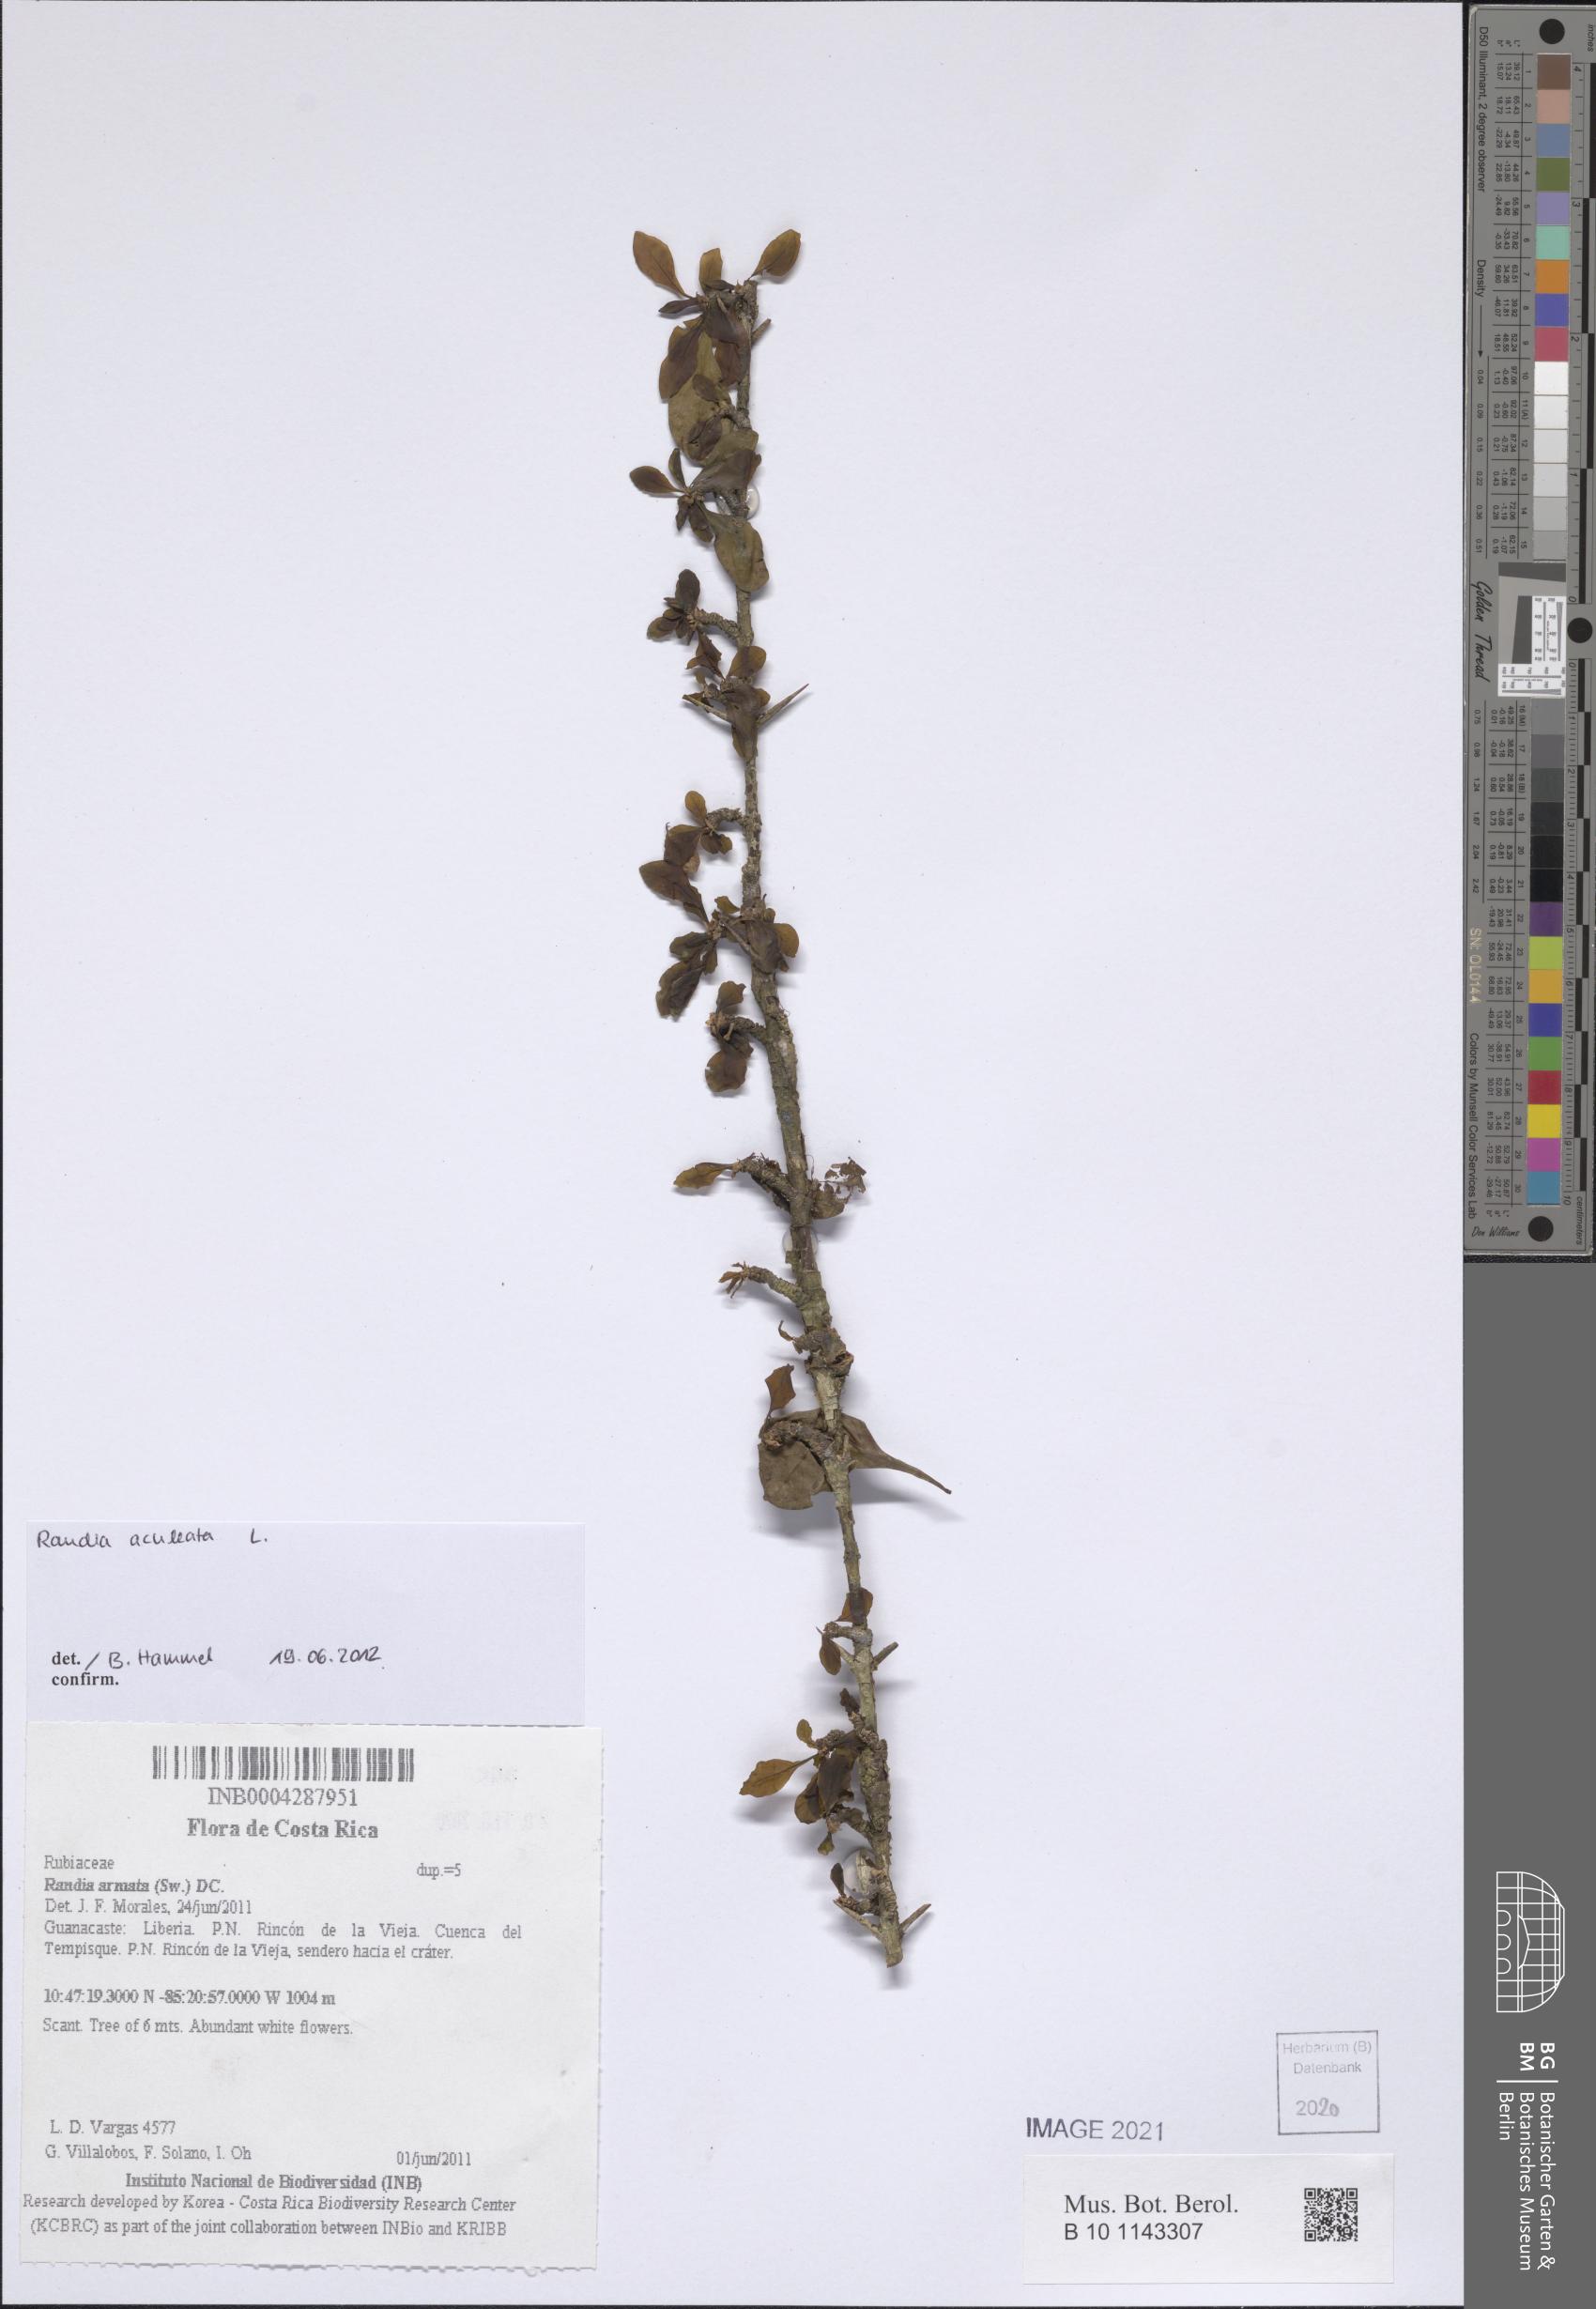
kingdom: Plantae
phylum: Tracheophyta
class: Magnoliopsida
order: Gentianales
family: Rubiaceae
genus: Randia
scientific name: Randia aculeata
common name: Inkberry
